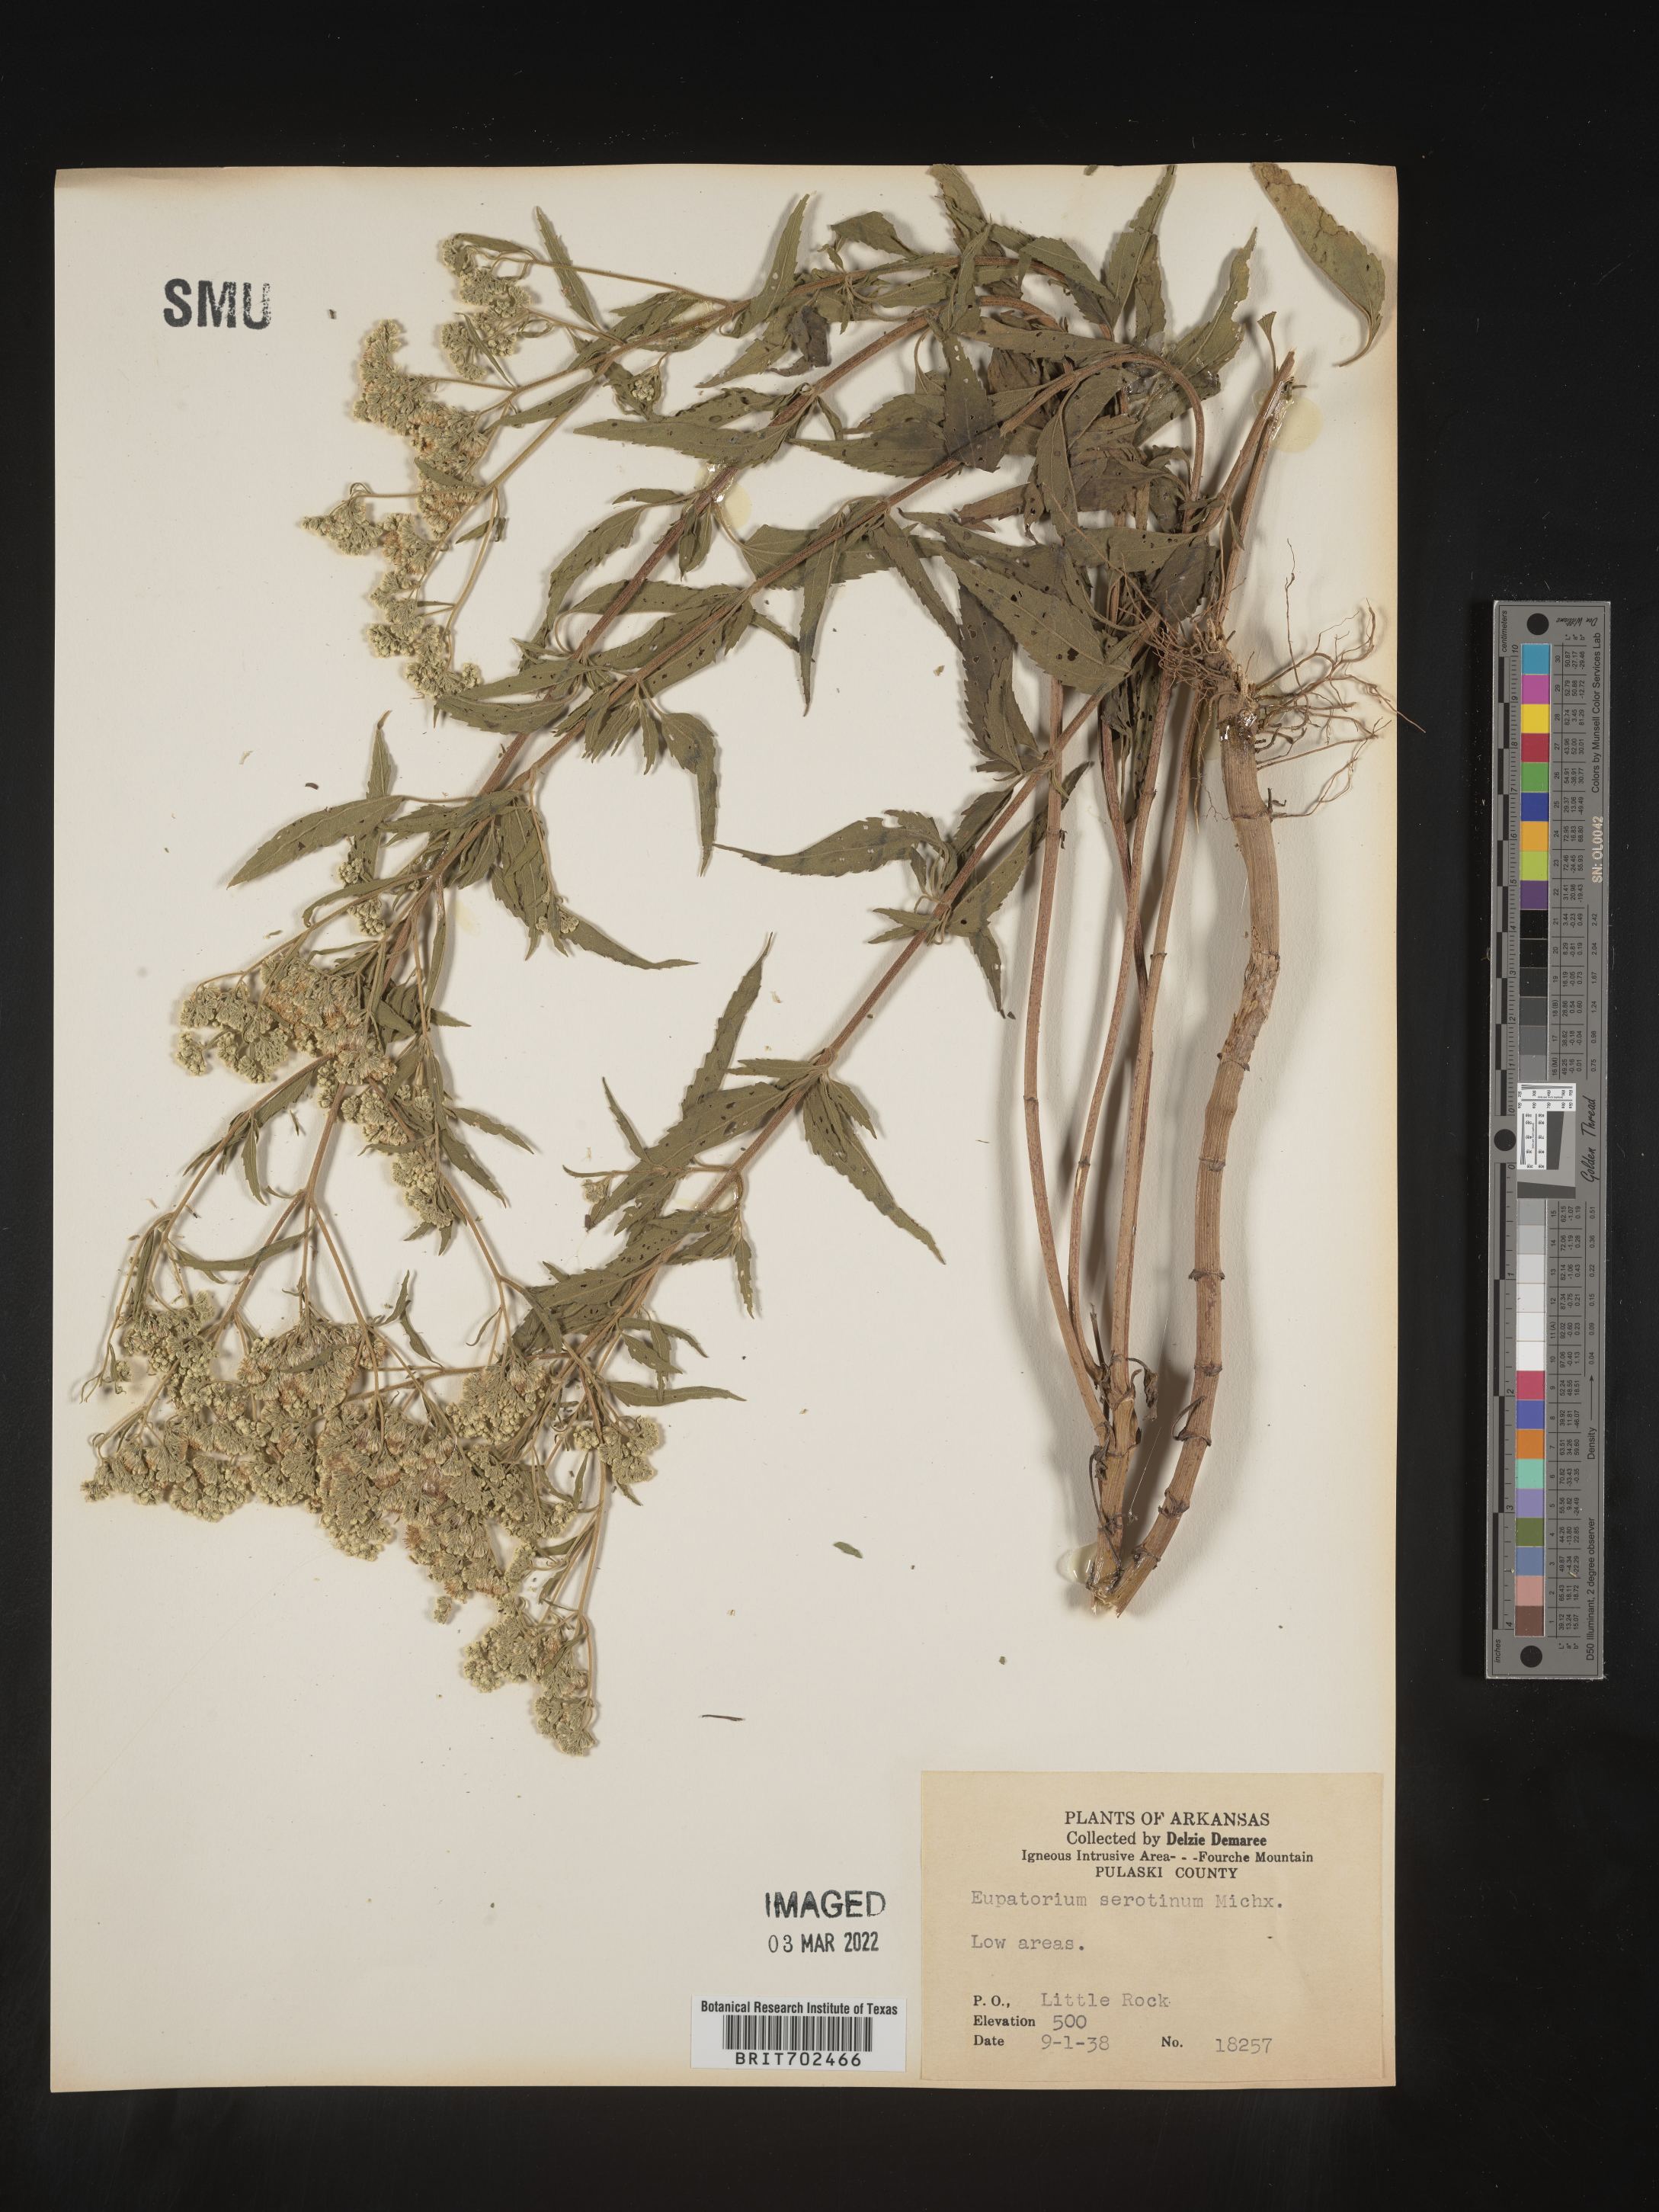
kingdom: Plantae
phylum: Tracheophyta
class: Magnoliopsida
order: Asterales
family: Asteraceae
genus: Eupatorium
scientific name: Eupatorium serotinum
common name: Late boneset
